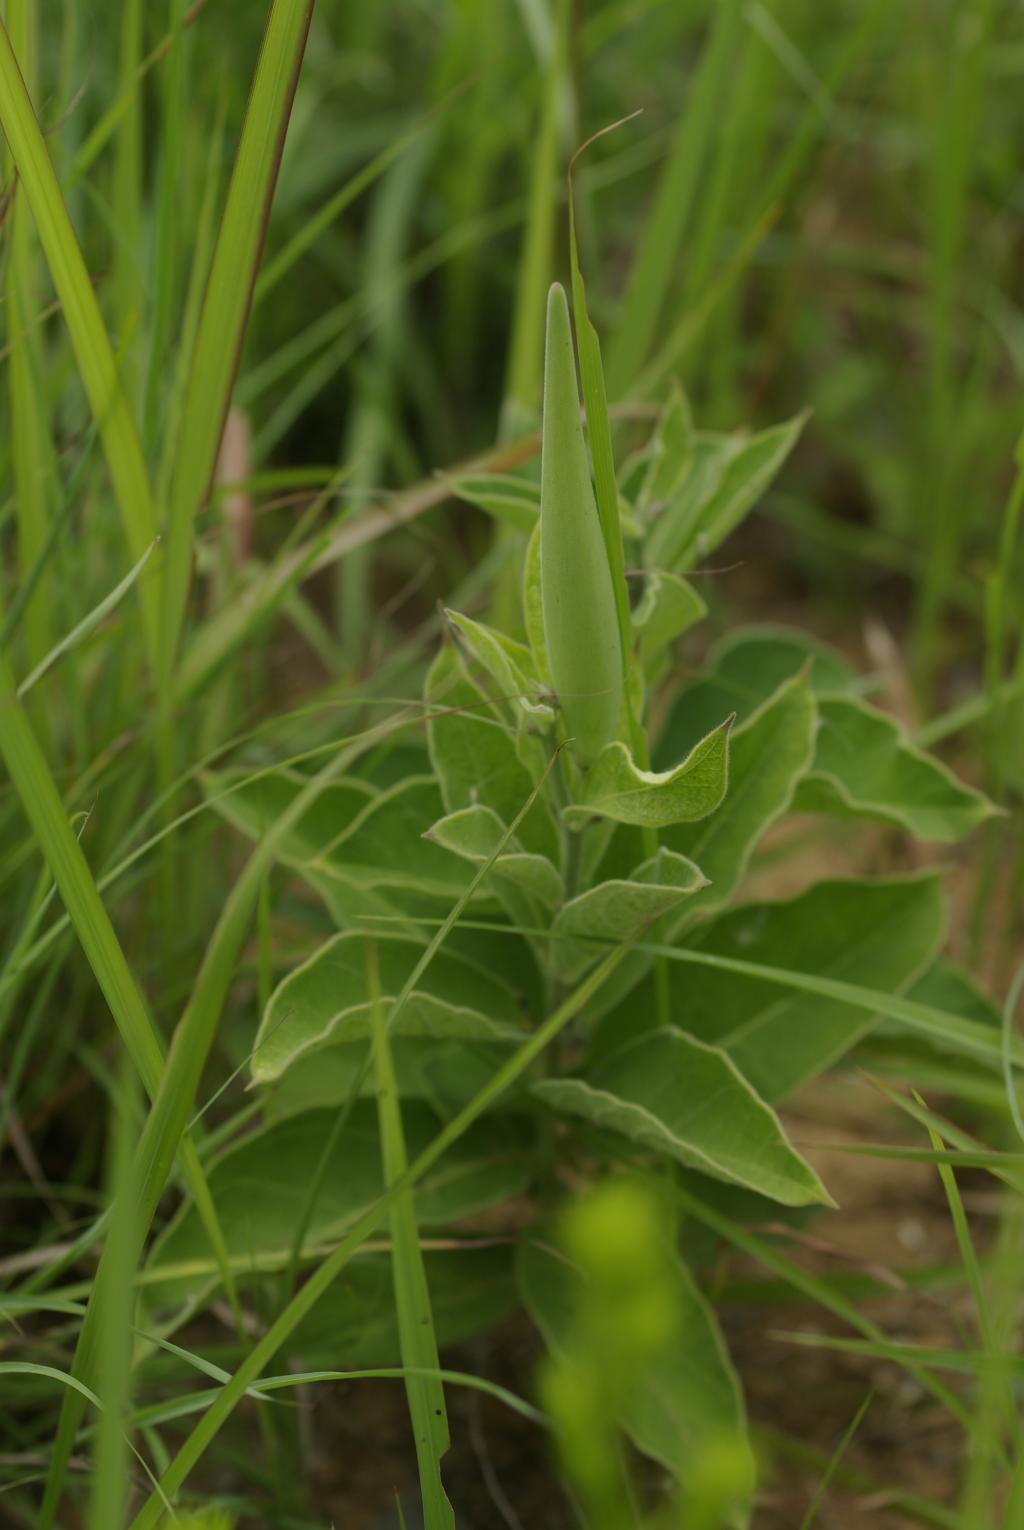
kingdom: Plantae
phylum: Tracheophyta
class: Magnoliopsida
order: Gentianales
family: Apocynaceae
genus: Vincetoxicum
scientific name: Vincetoxicum atratum
